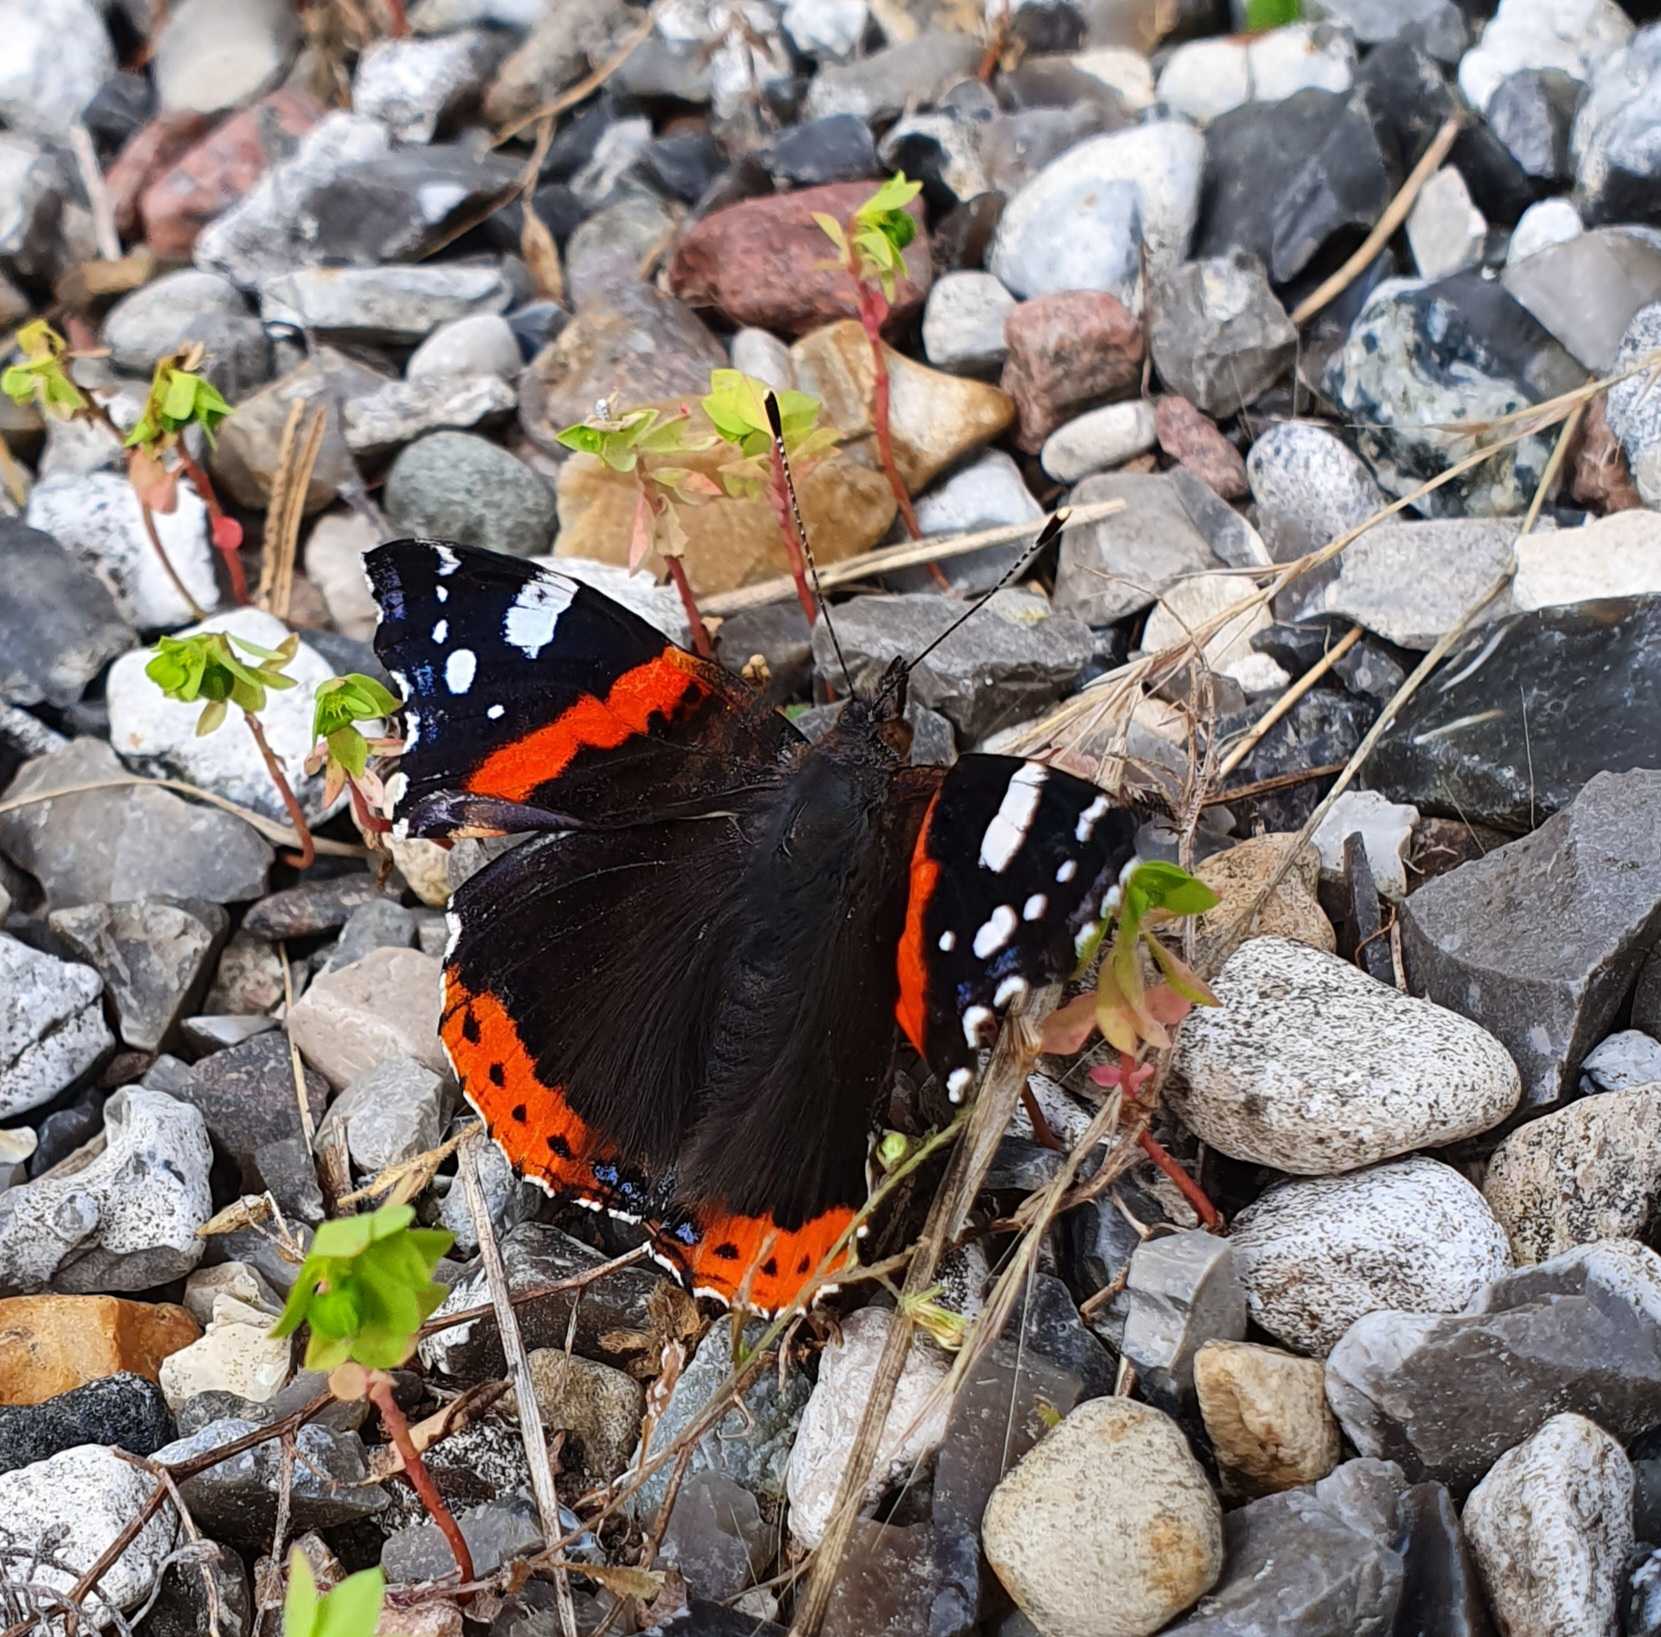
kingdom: Animalia
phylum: Arthropoda
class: Insecta
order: Lepidoptera
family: Nymphalidae
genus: Vanessa
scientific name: Vanessa atalanta
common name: Admiral
